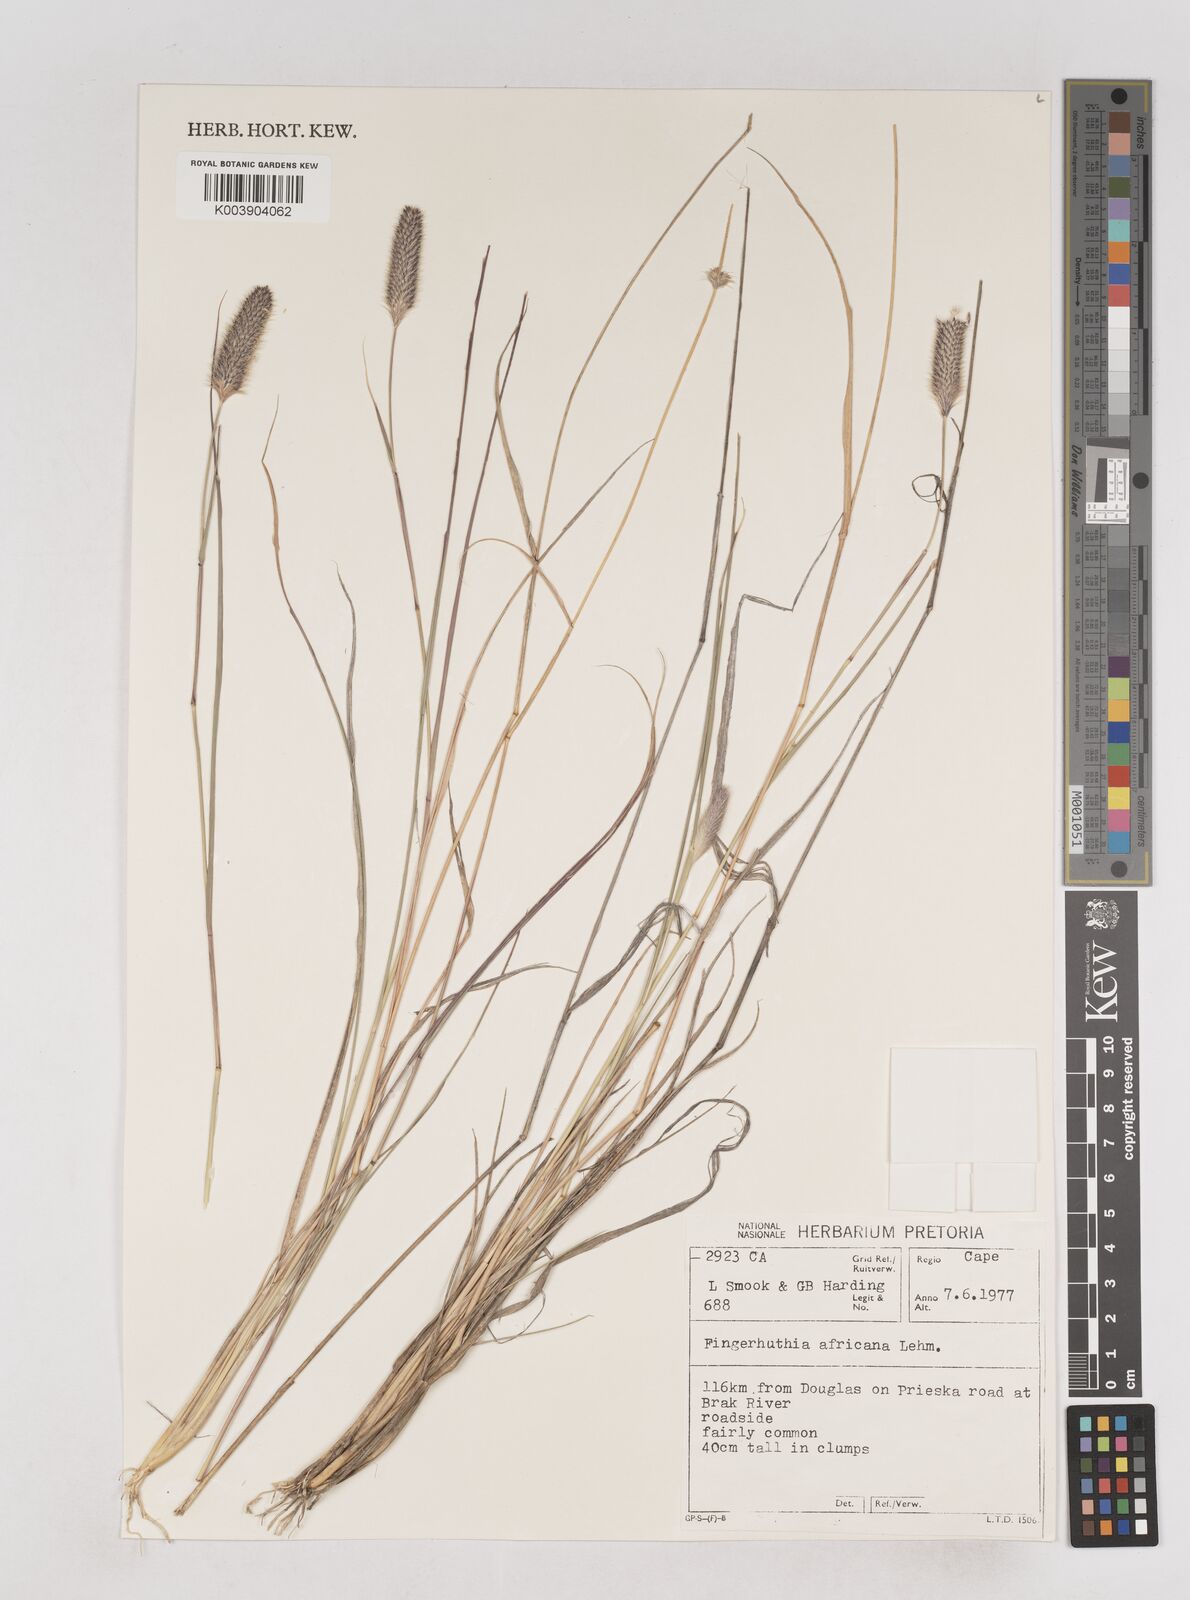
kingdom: Plantae
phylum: Tracheophyta
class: Liliopsida
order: Poales
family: Poaceae
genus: Fingerhuthia
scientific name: Fingerhuthia africana
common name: Zulu fescue
